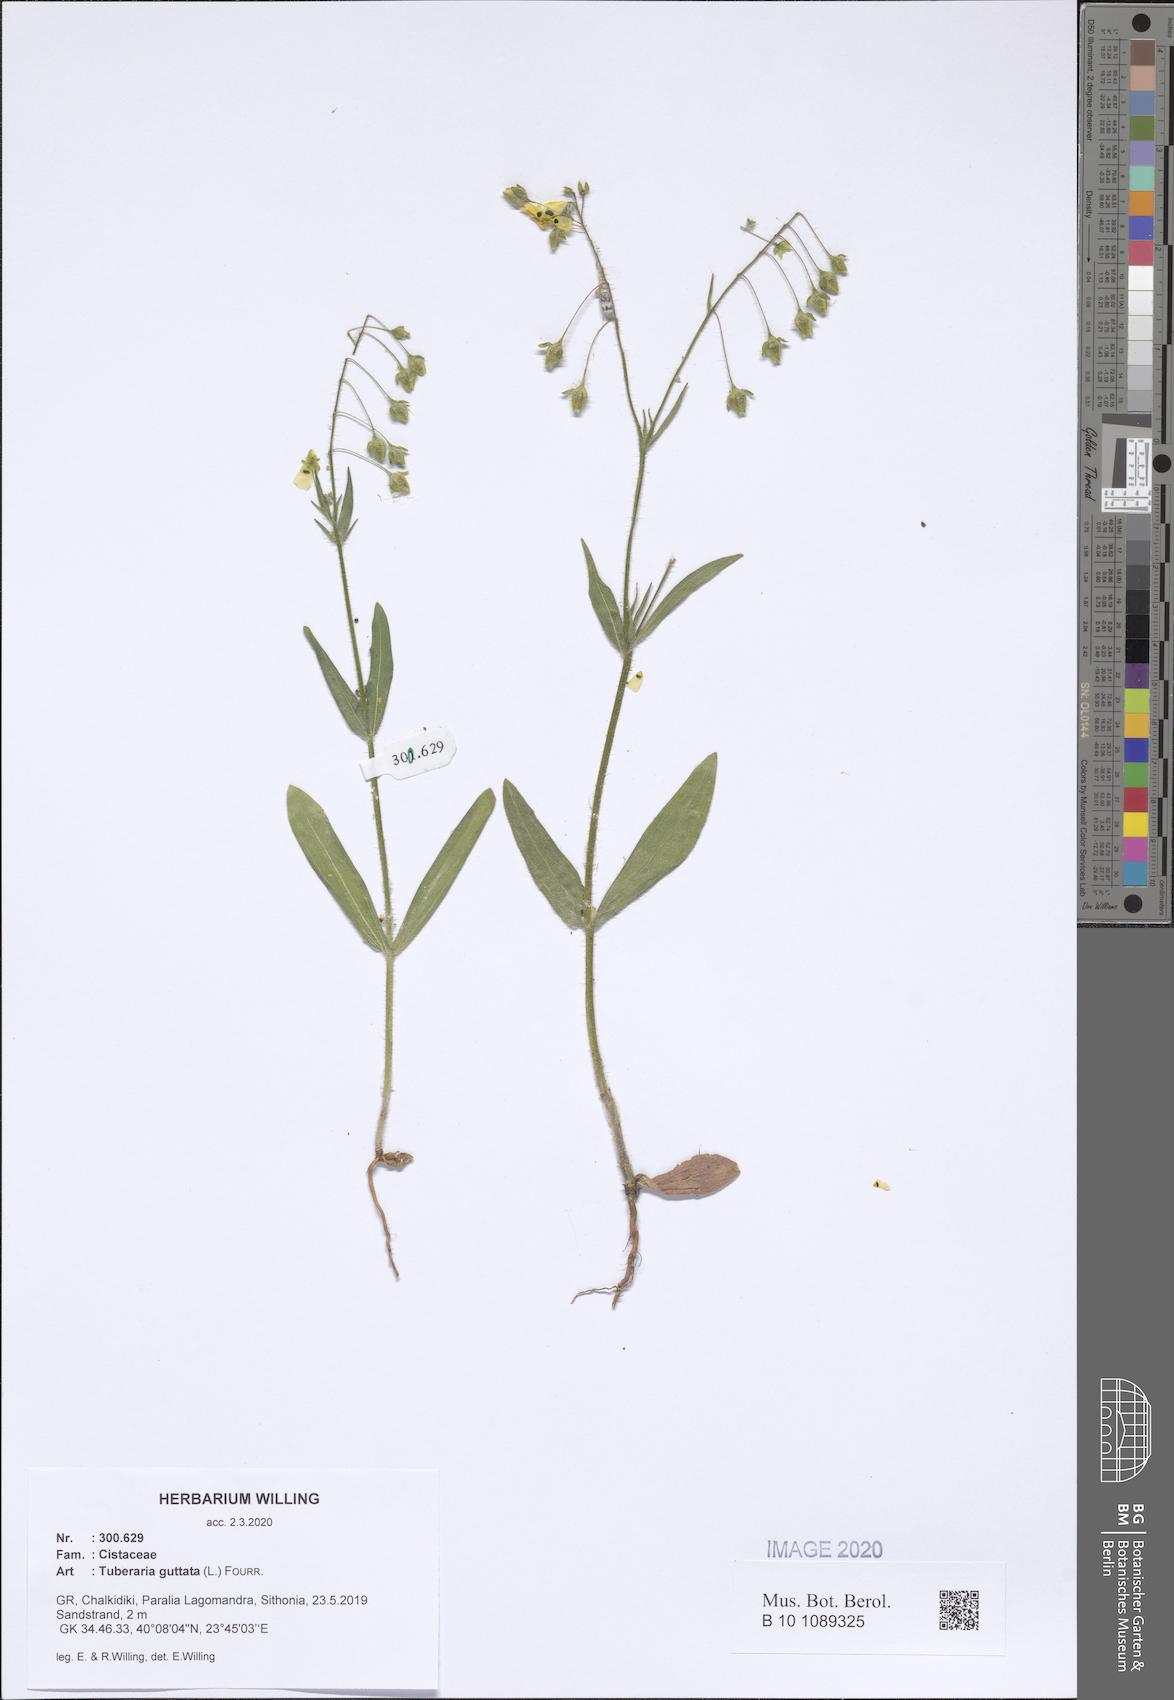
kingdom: Plantae
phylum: Tracheophyta
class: Magnoliopsida
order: Malvales
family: Cistaceae
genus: Tuberaria
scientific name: Tuberaria guttata
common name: Spotted rock-rose
